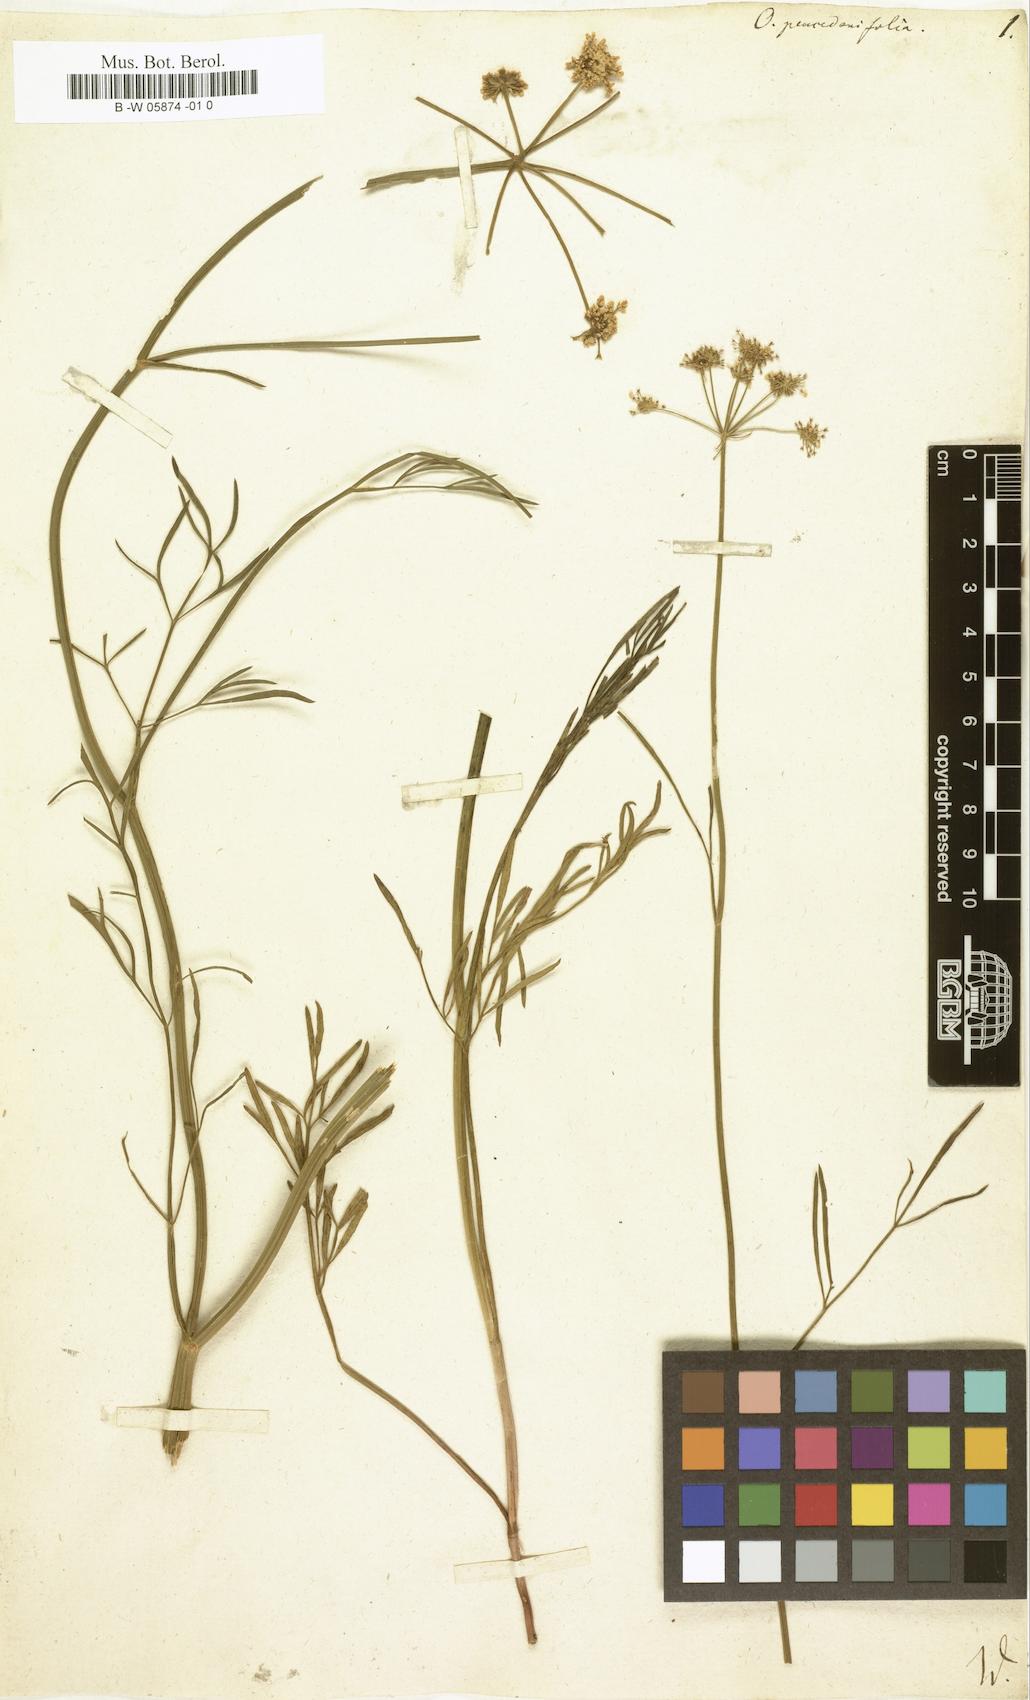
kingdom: Plantae
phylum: Tracheophyta
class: Magnoliopsida
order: Apiales
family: Apiaceae
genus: Oenanthe
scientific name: Oenanthe peucedanifolia
